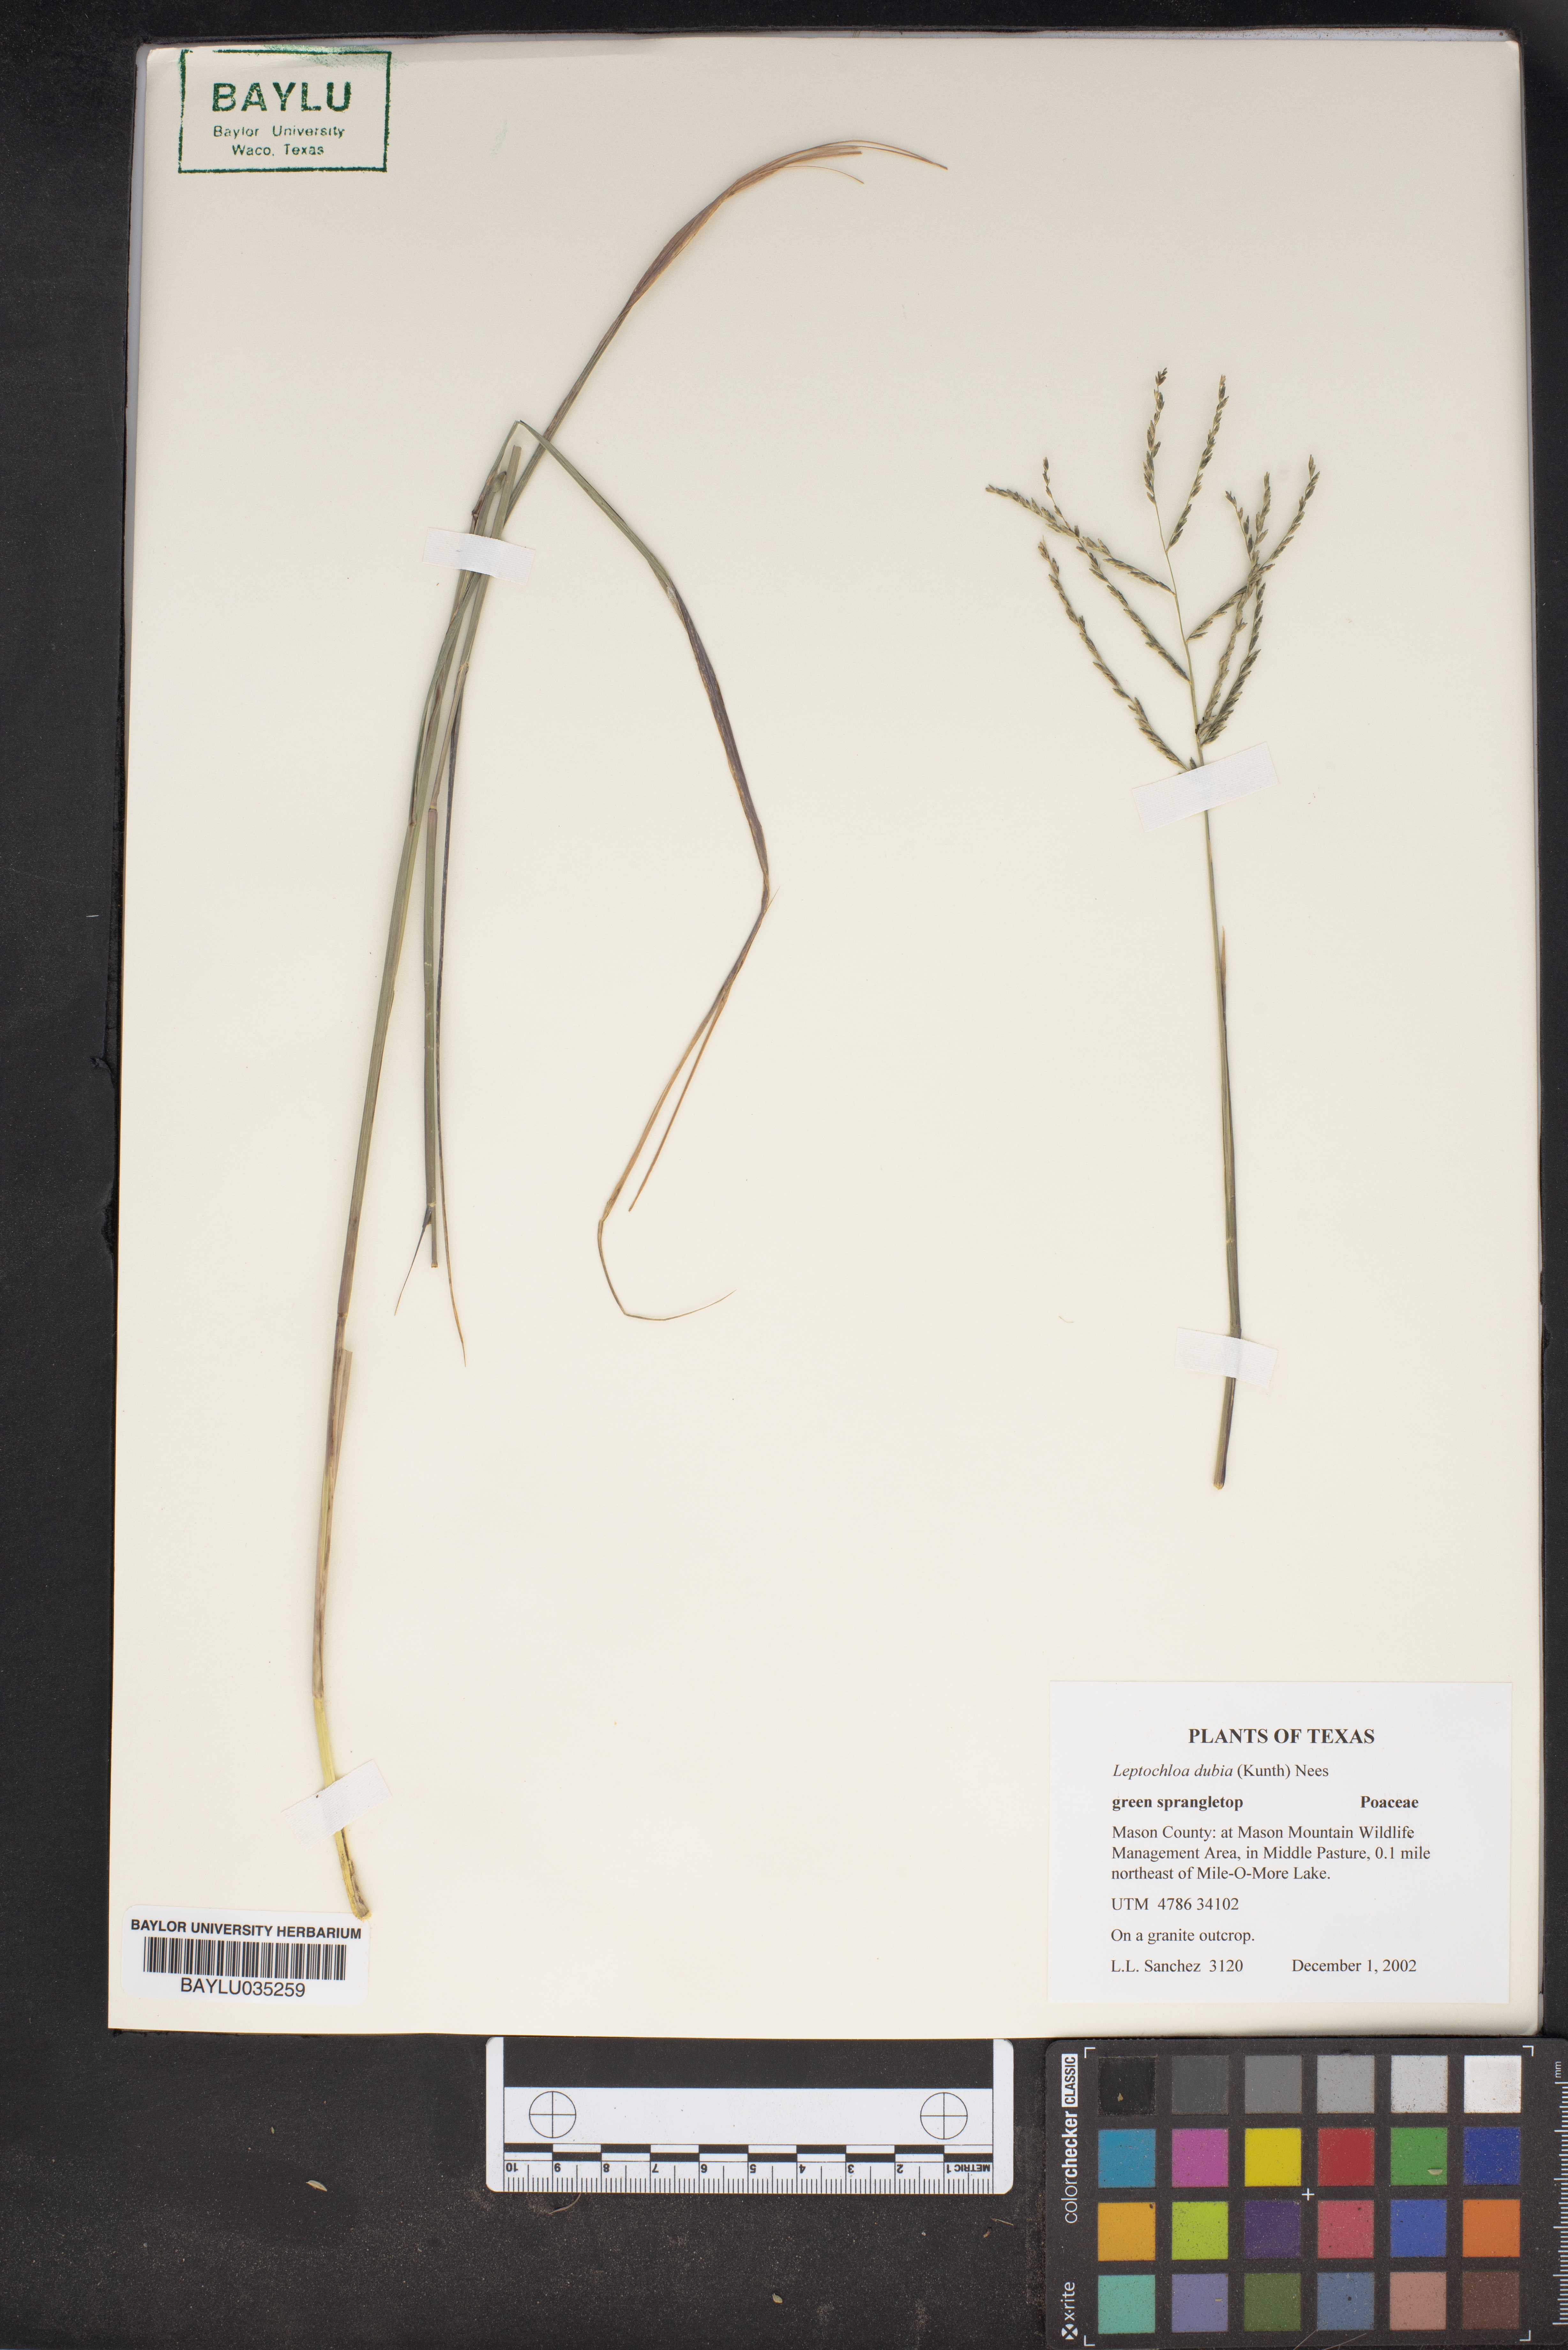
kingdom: Plantae
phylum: Tracheophyta
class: Liliopsida
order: Poales
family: Poaceae
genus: Disakisperma
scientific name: Disakisperma dubium
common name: Green sprangletop
